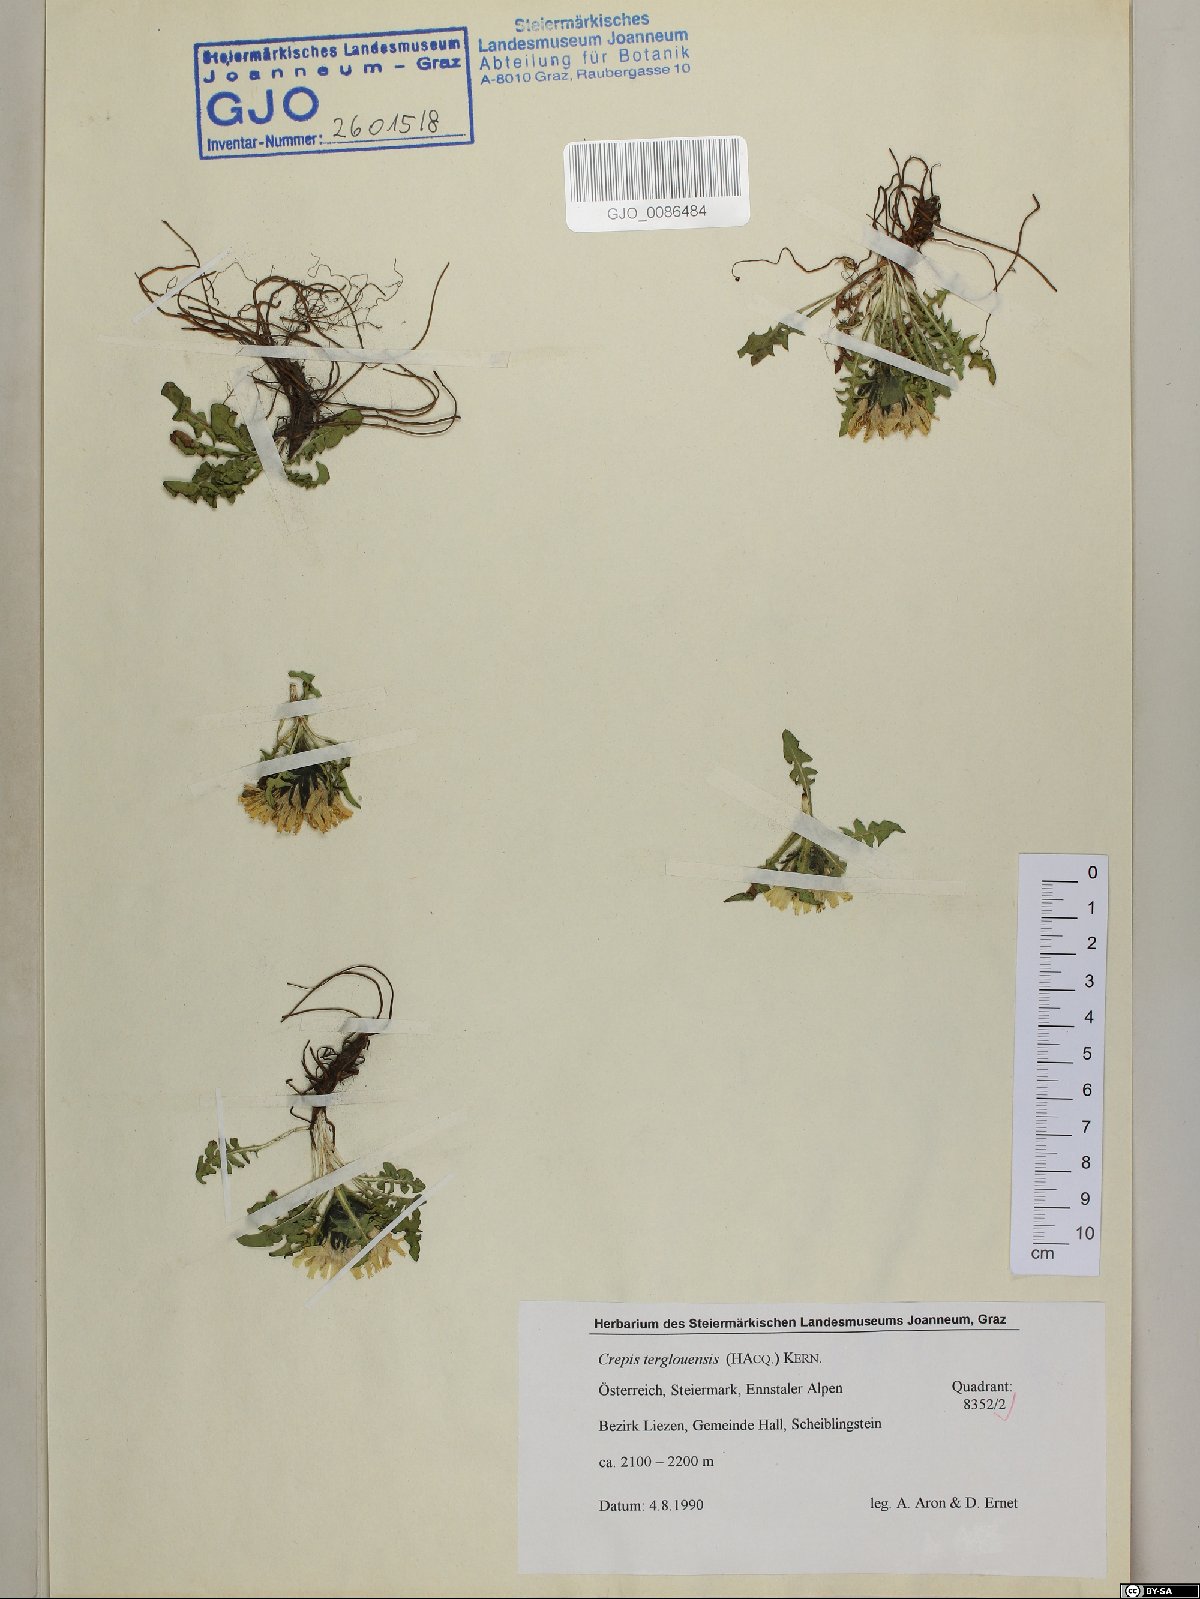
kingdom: Plantae
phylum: Tracheophyta
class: Magnoliopsida
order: Asterales
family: Asteraceae
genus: Crepis
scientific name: Crepis terglouensis
